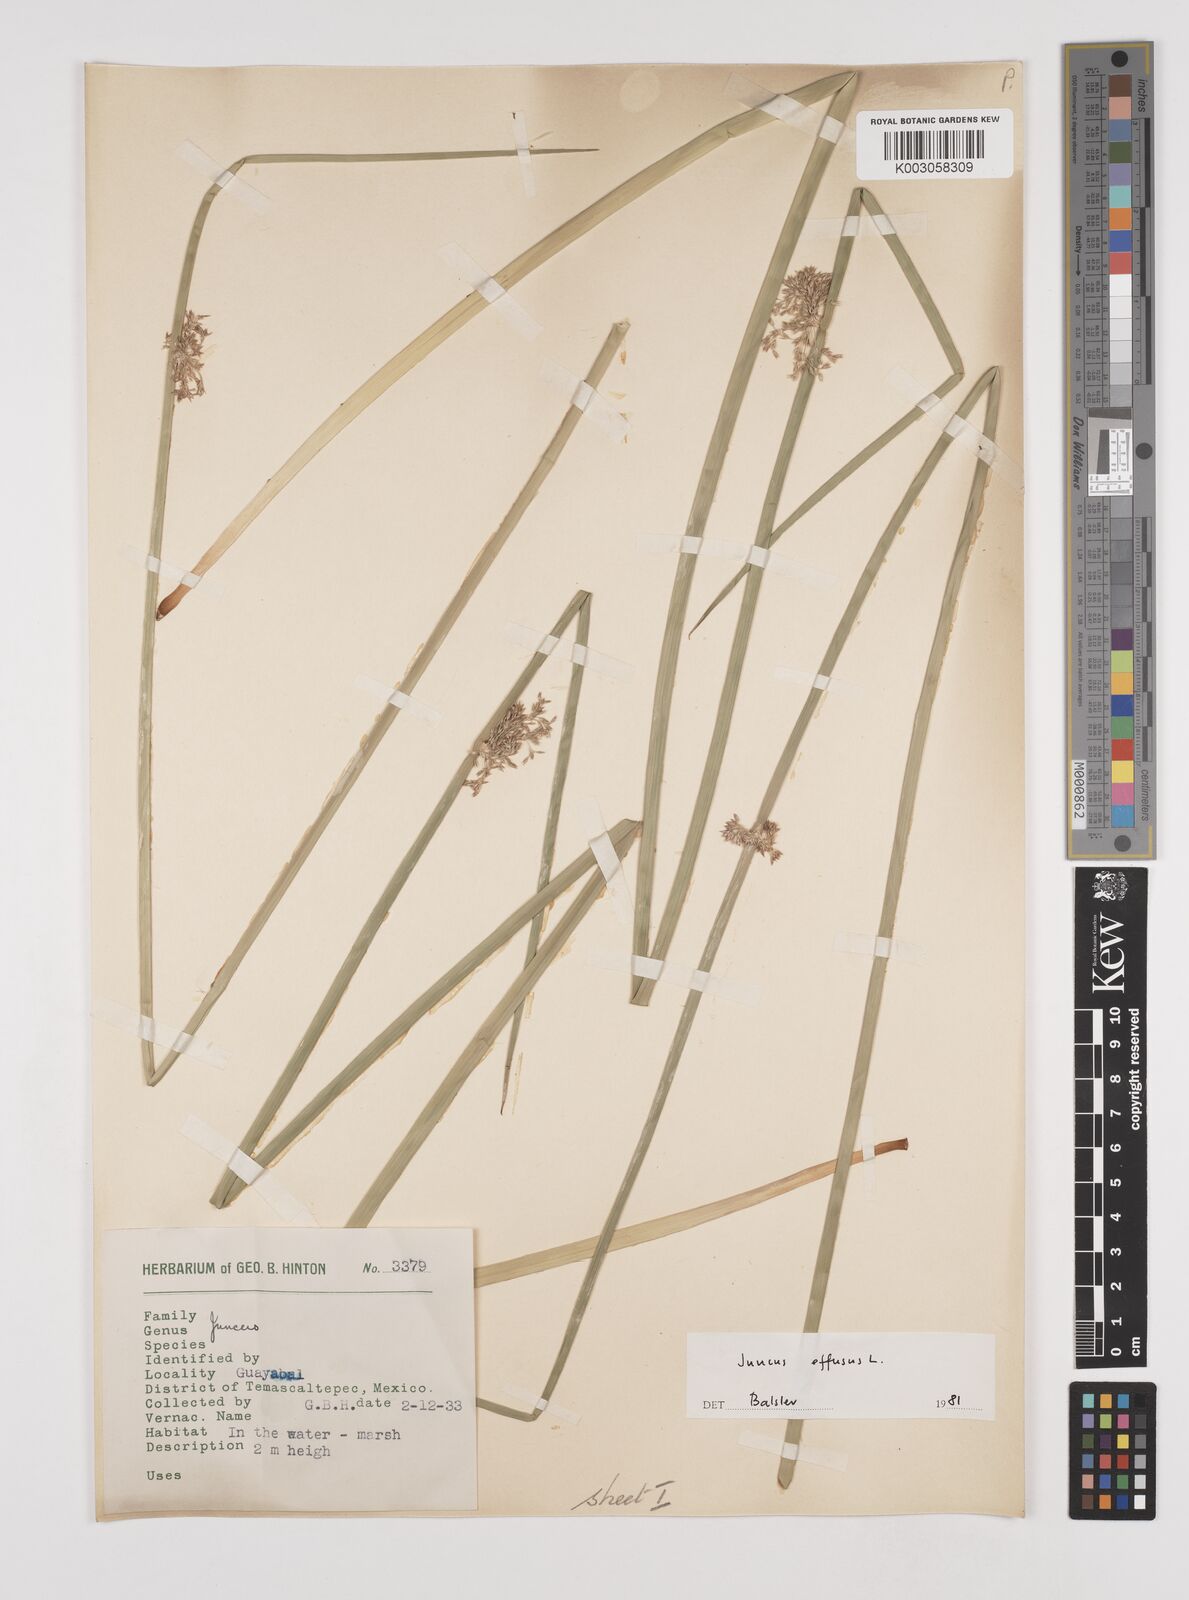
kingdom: Plantae
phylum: Tracheophyta
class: Liliopsida
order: Poales
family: Juncaceae
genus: Juncus
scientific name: Juncus effusus
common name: Soft rush
